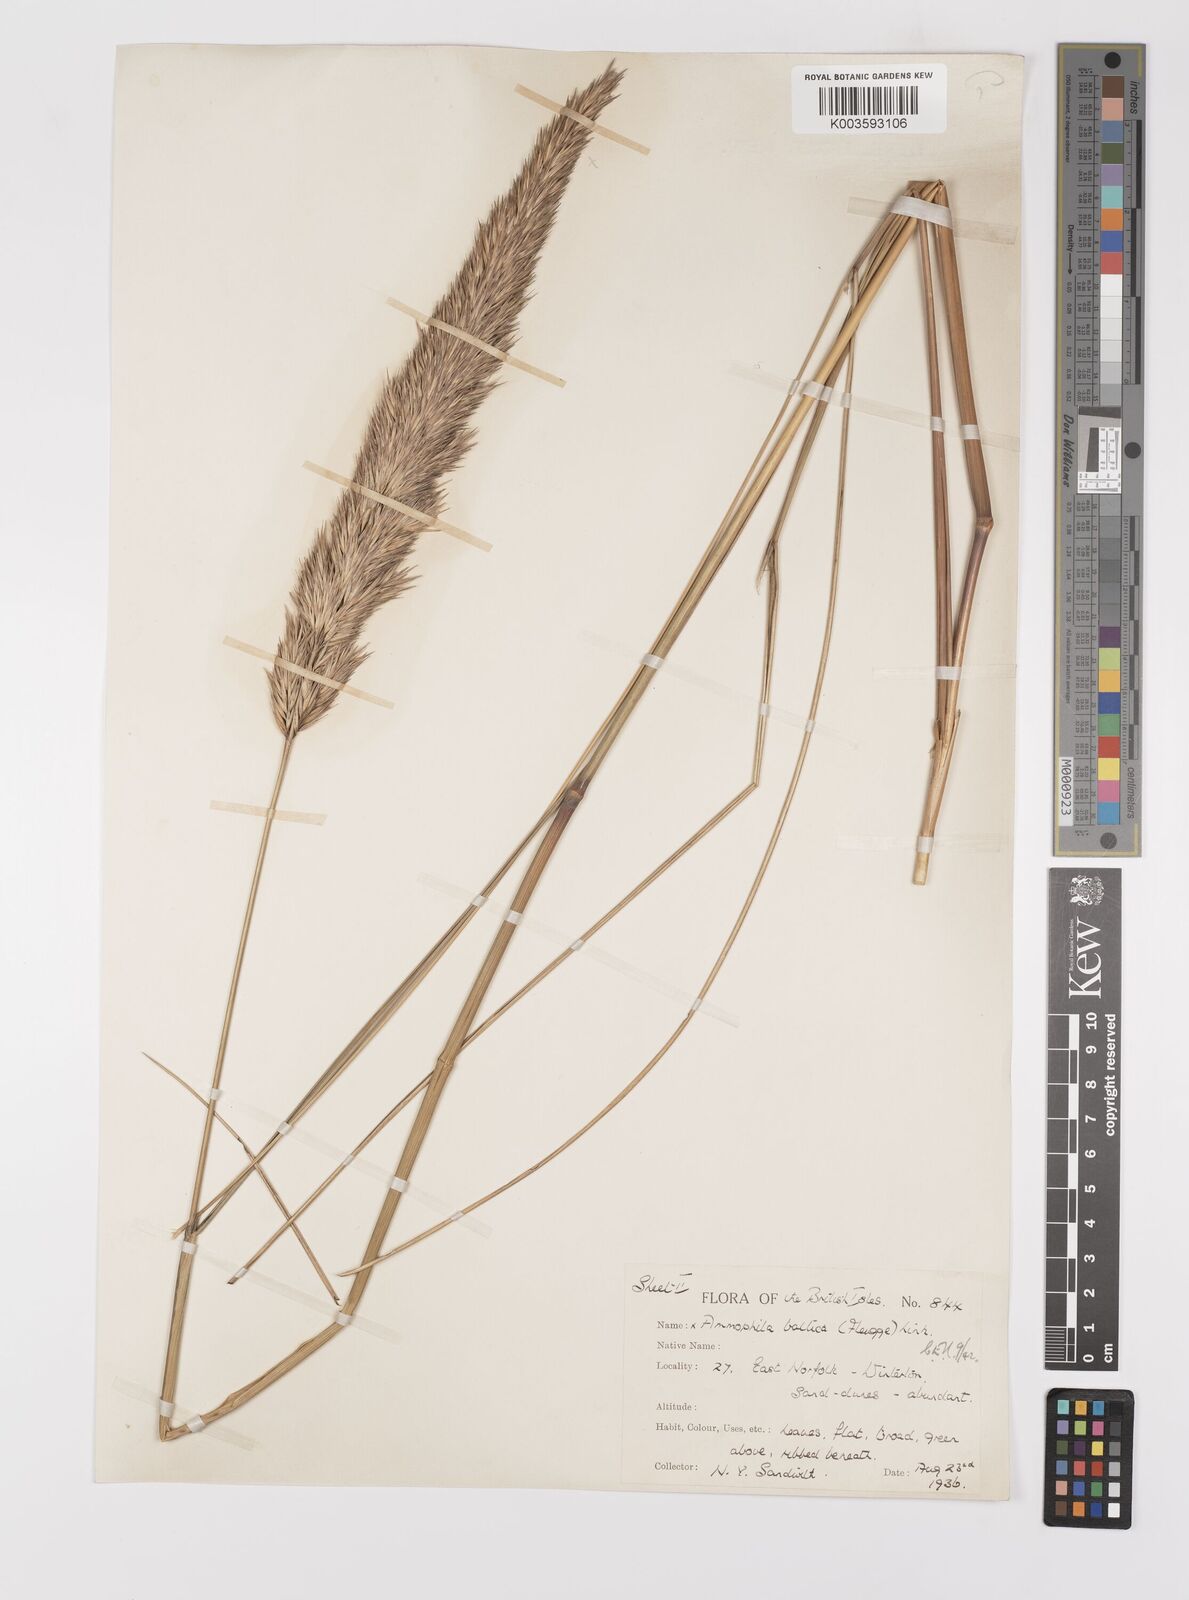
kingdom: Plantae
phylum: Tracheophyta
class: Liliopsida
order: Poales
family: Poaceae
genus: Calamagrostis
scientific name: Calamagrostis baltica
